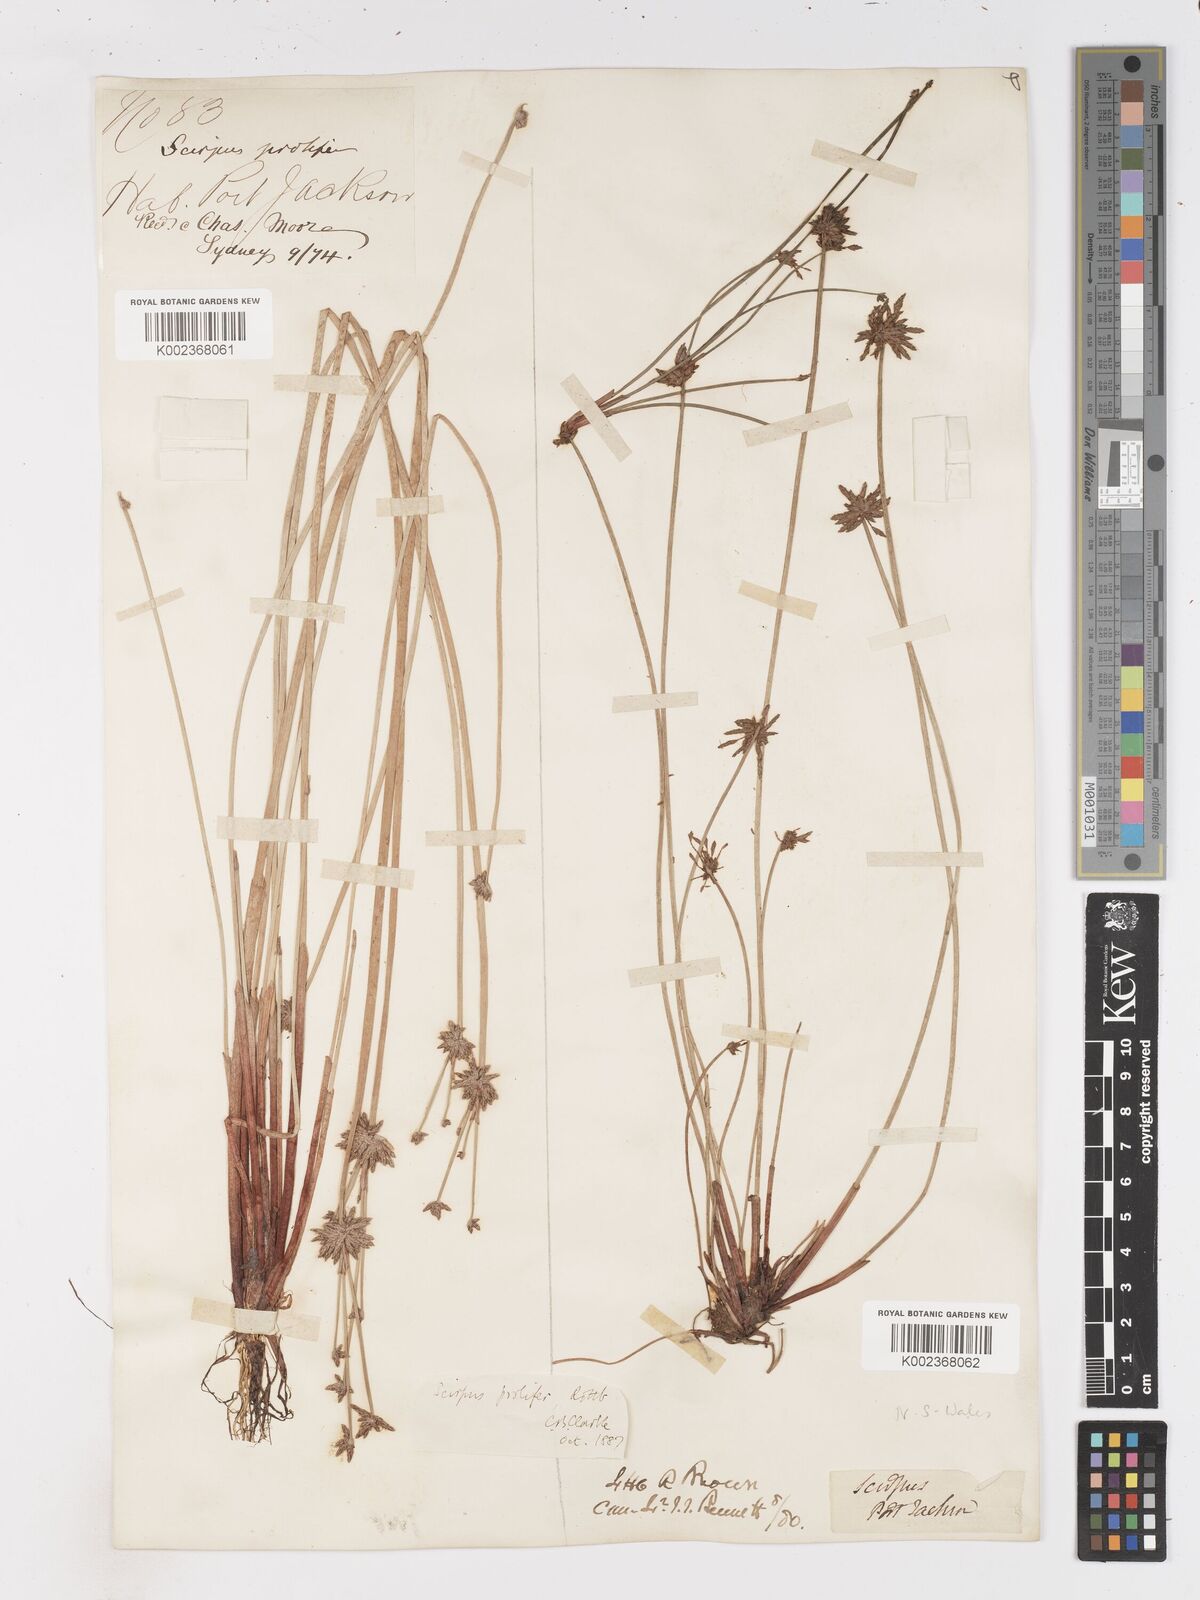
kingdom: Plantae
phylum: Tracheophyta
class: Liliopsida
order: Poales
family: Cyperaceae
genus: Isolepis
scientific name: Isolepis prolifera
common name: Proliferating bulrush
